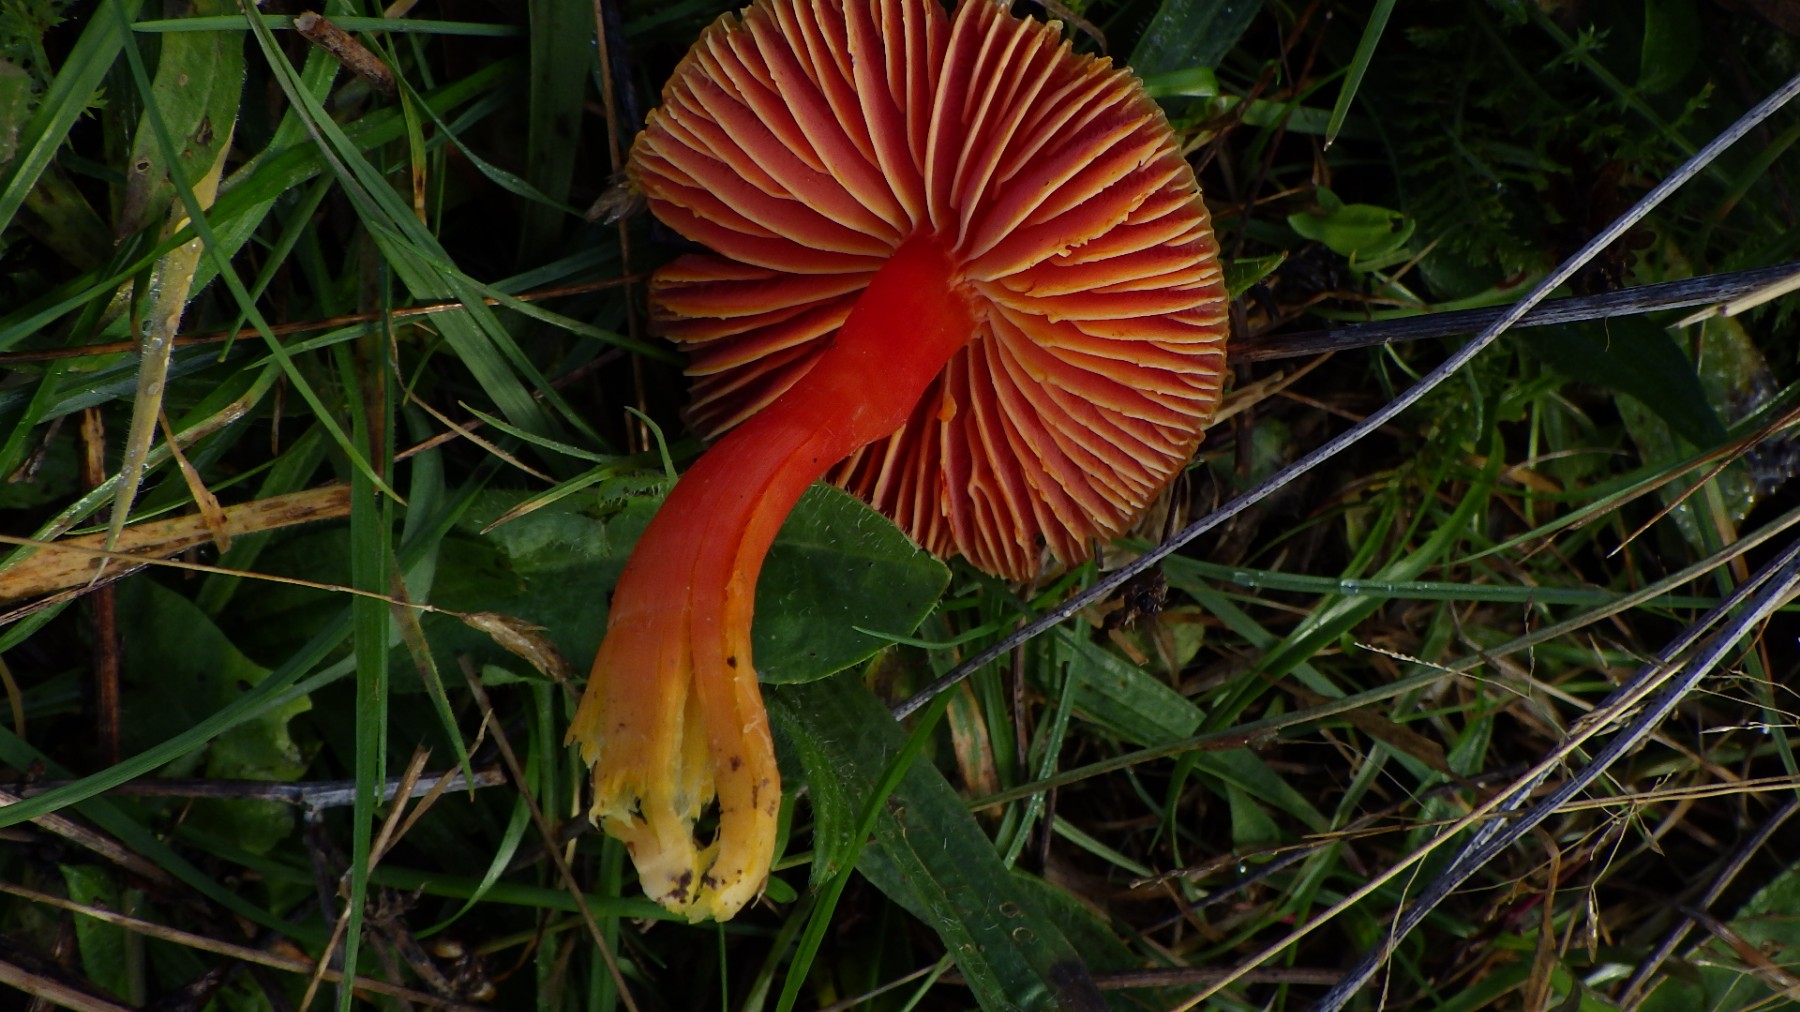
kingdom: Fungi
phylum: Basidiomycota
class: Agaricomycetes
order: Agaricales
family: Hygrophoraceae
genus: Hygrocybe
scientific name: Hygrocybe coccinea
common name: cinnober-vokshat
